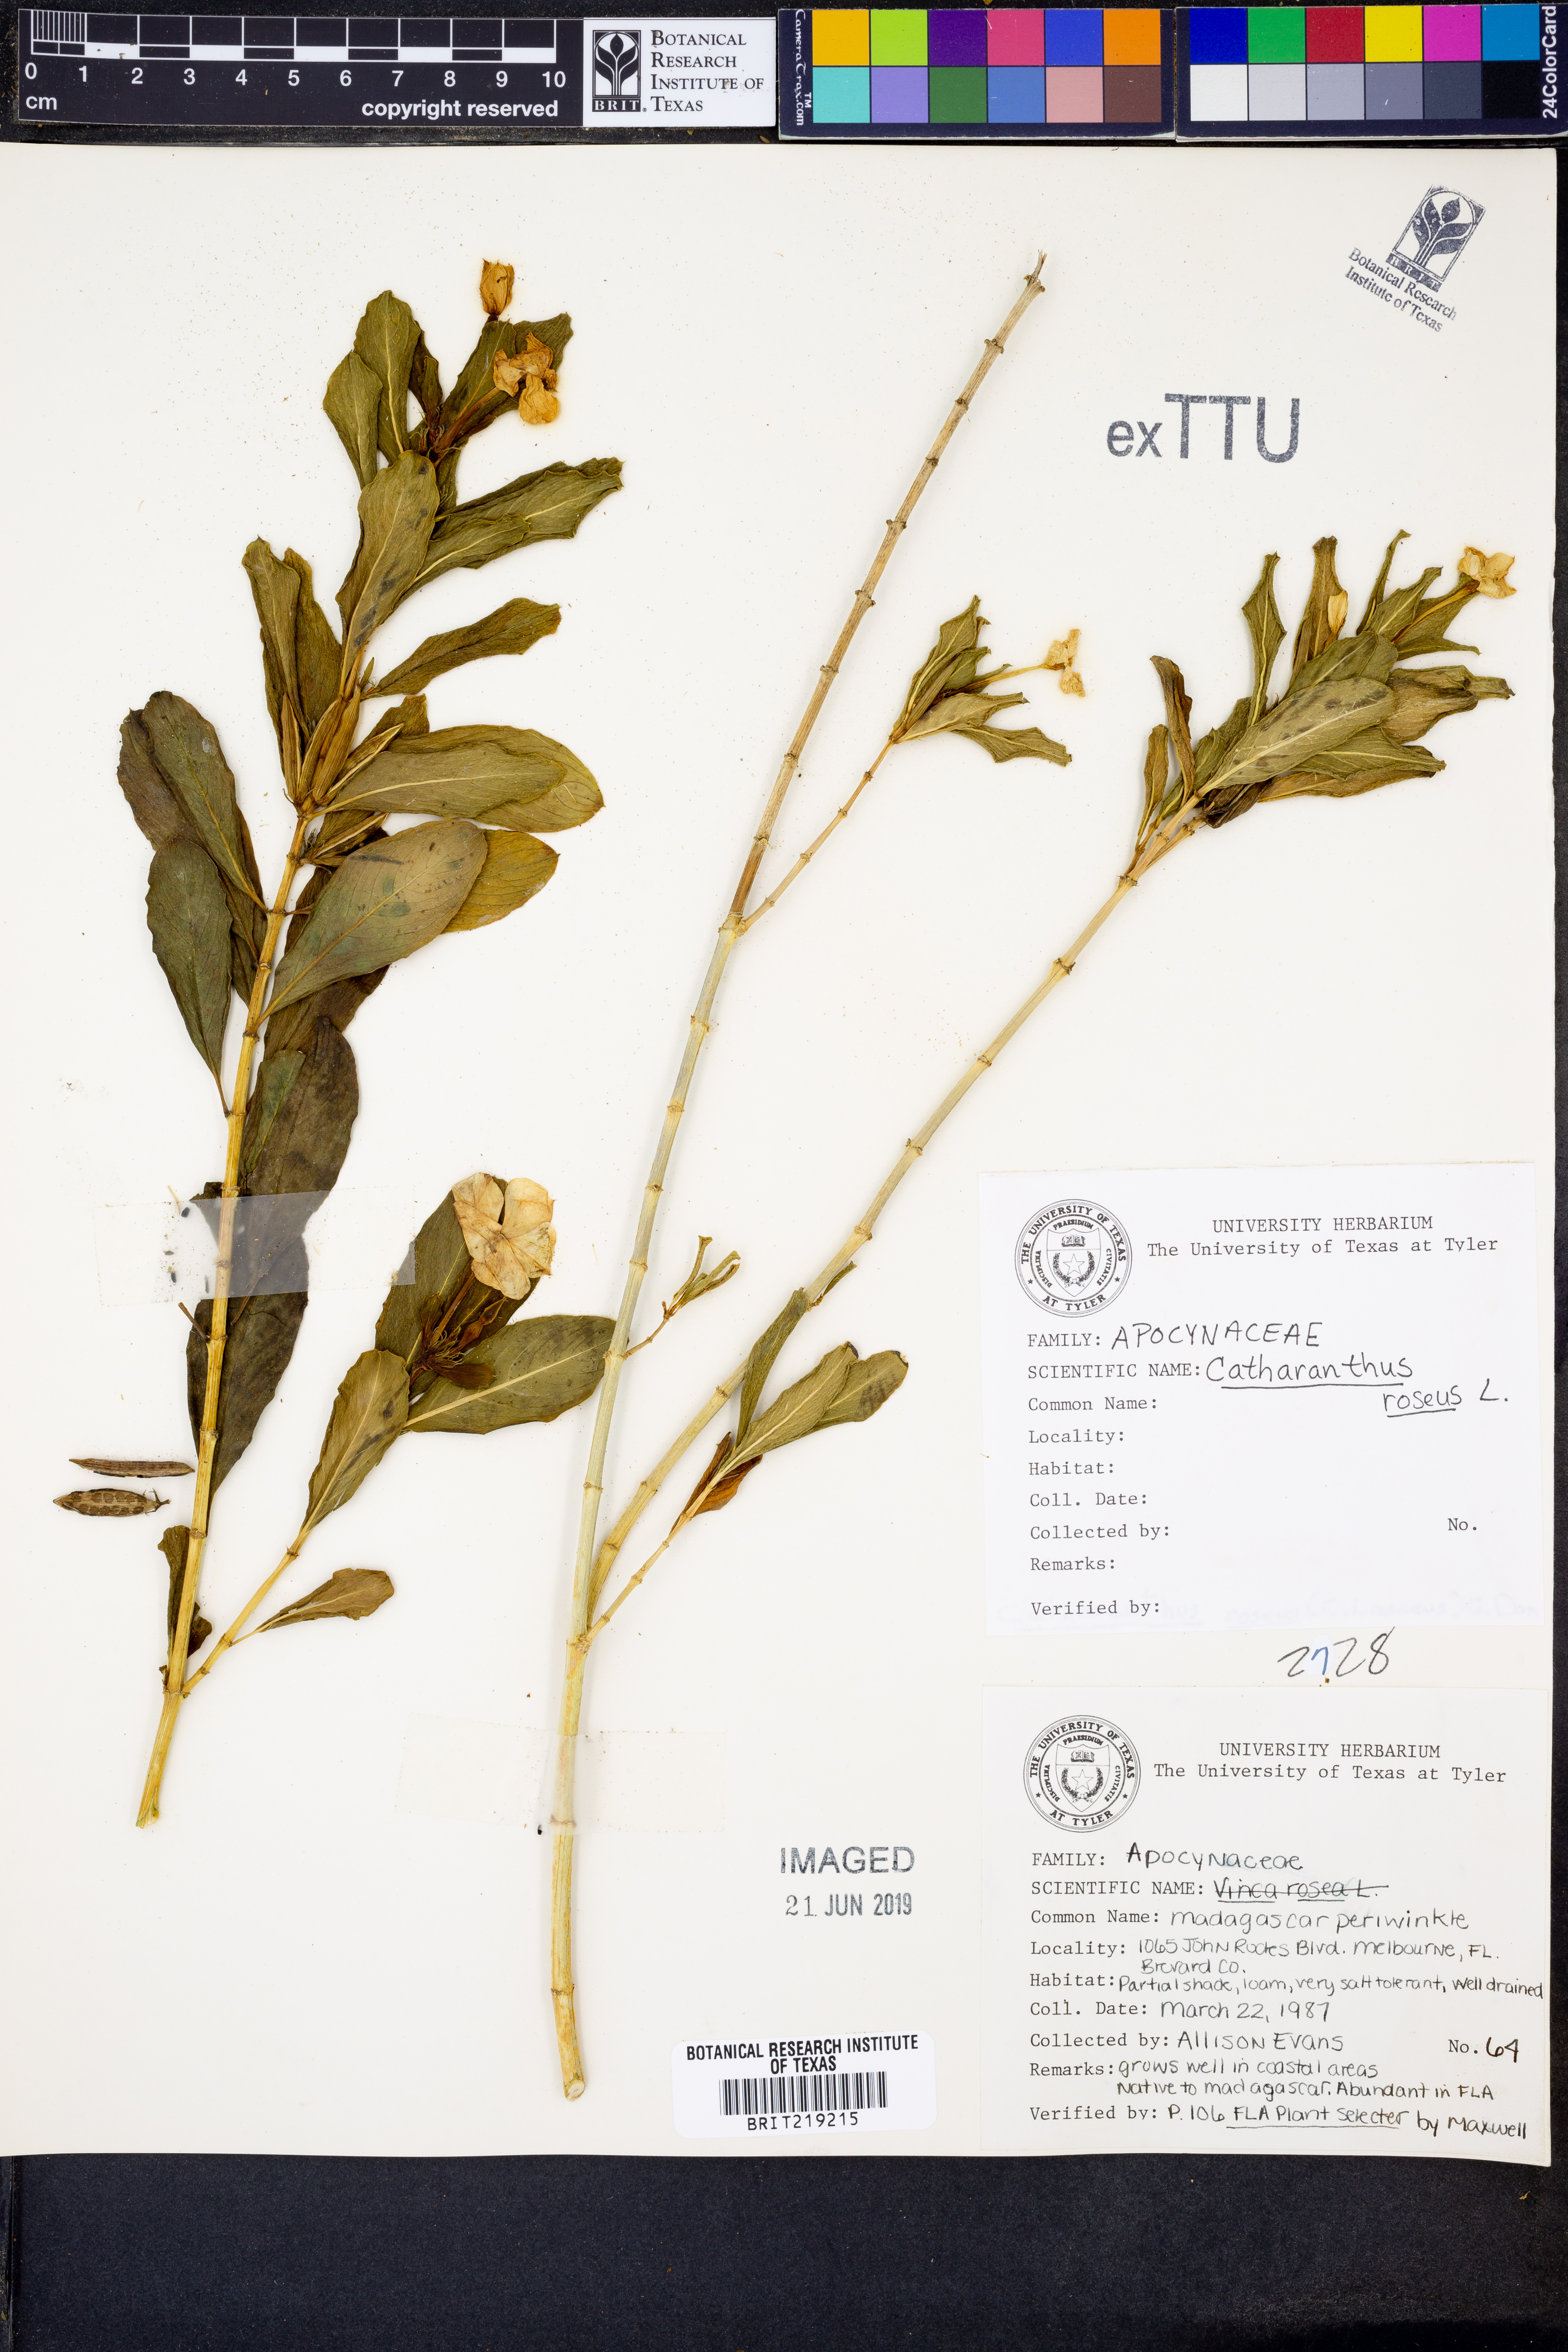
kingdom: Plantae
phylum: Tracheophyta
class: Magnoliopsida
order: Gentianales
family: Apocynaceae
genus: Catharanthus
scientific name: Catharanthus roseus
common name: Madagascar periwinkle
